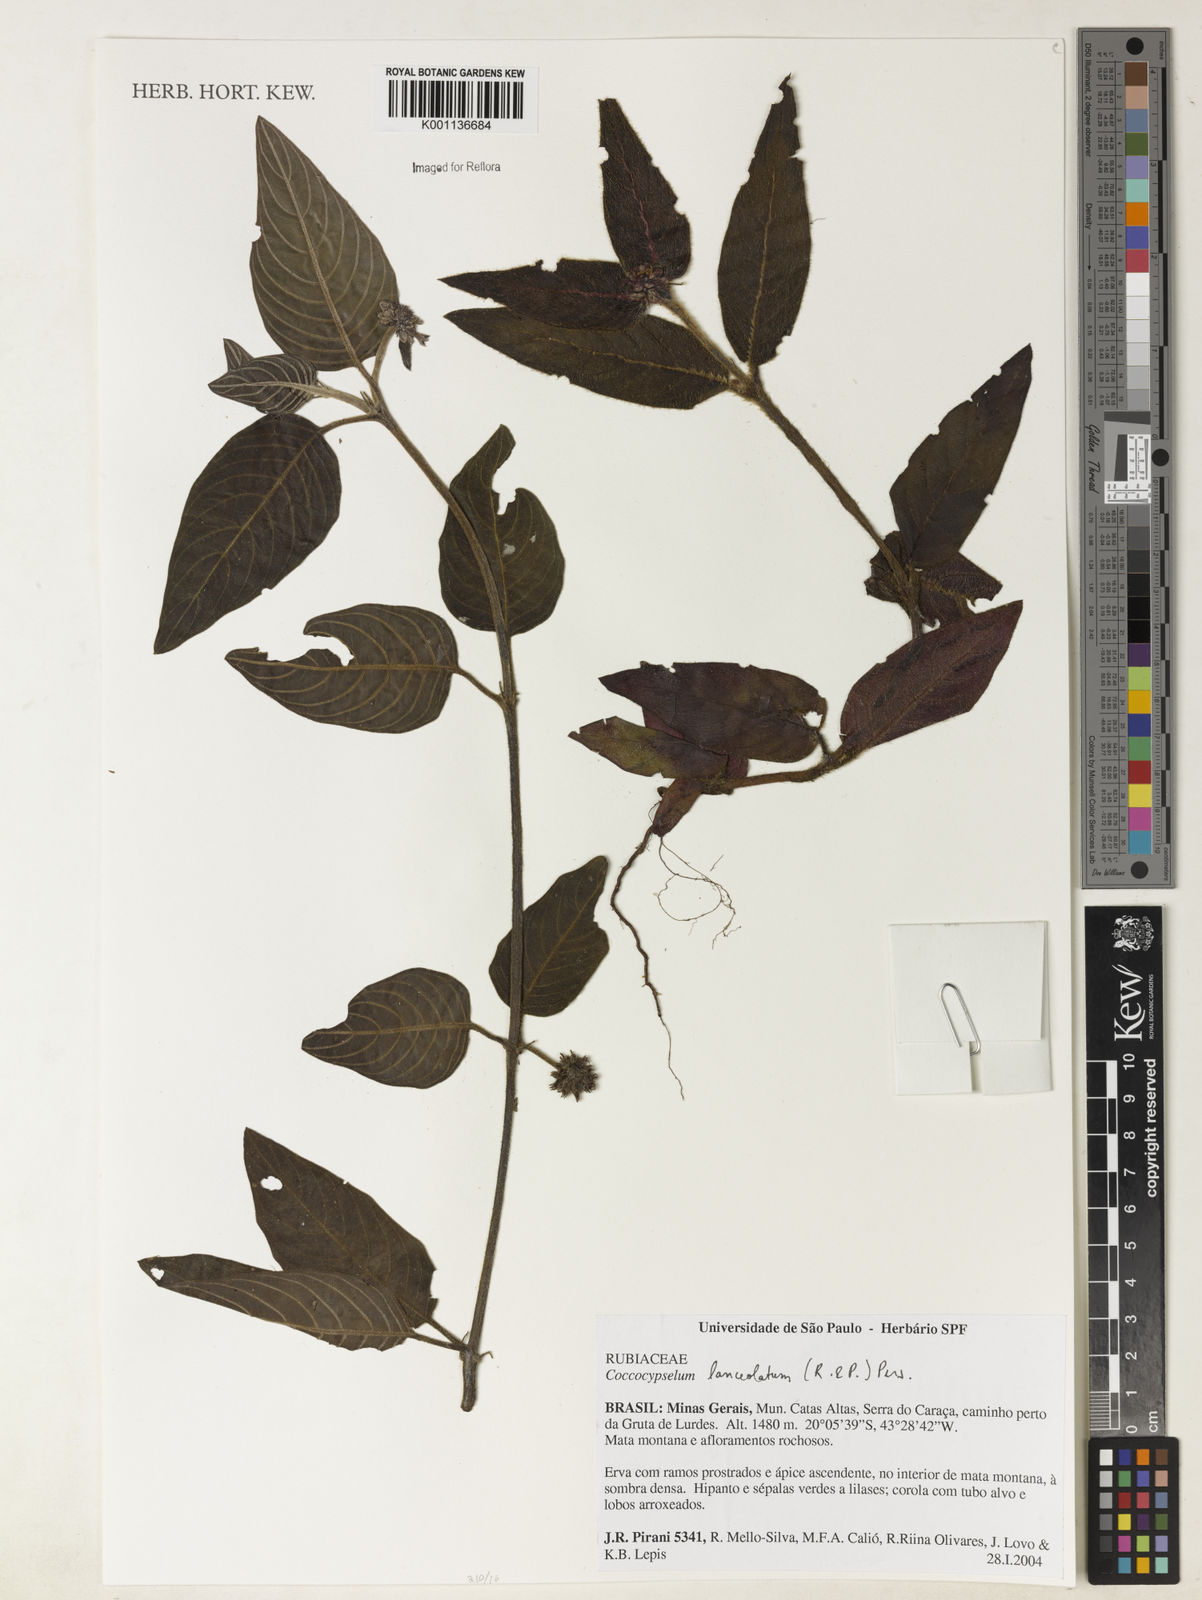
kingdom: Plantae
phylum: Tracheophyta
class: Magnoliopsida
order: Gentianales
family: Rubiaceae
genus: Coccocypselum
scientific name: Coccocypselum lanceolatum
